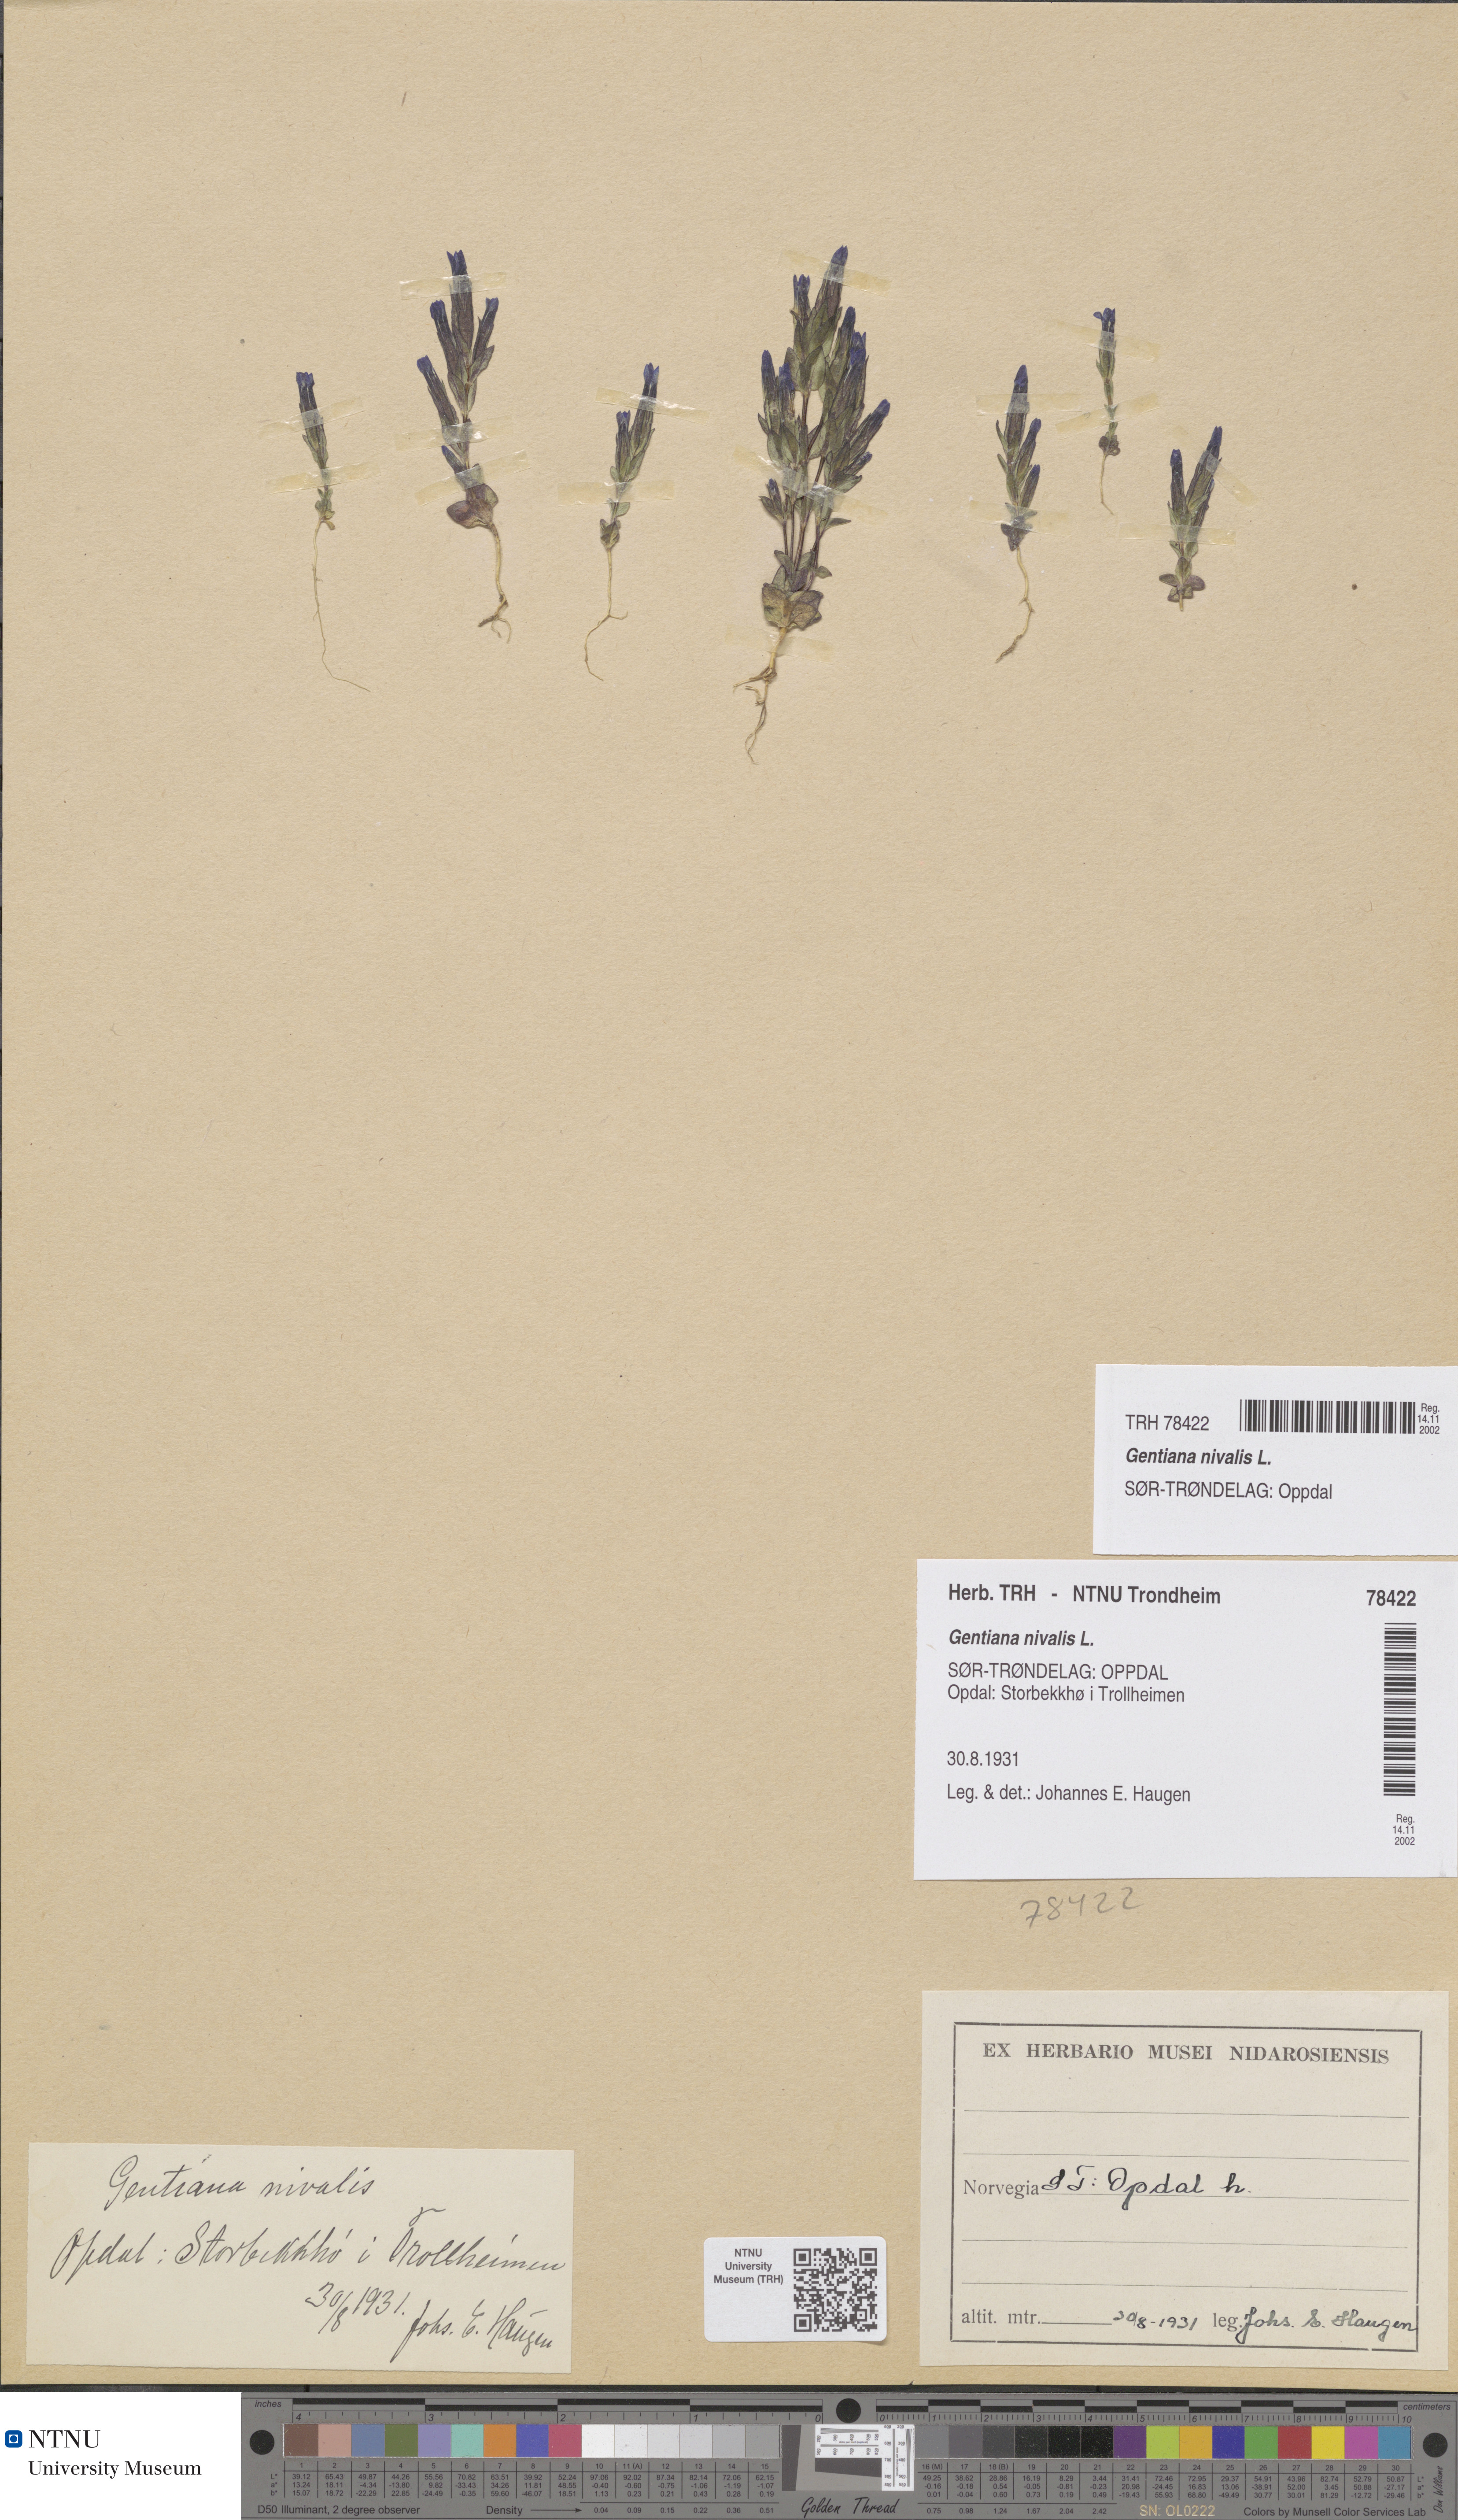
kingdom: Plantae
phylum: Tracheophyta
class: Magnoliopsida
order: Gentianales
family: Gentianaceae
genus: Gentiana
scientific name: Gentiana nivalis
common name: Alpine gentian
